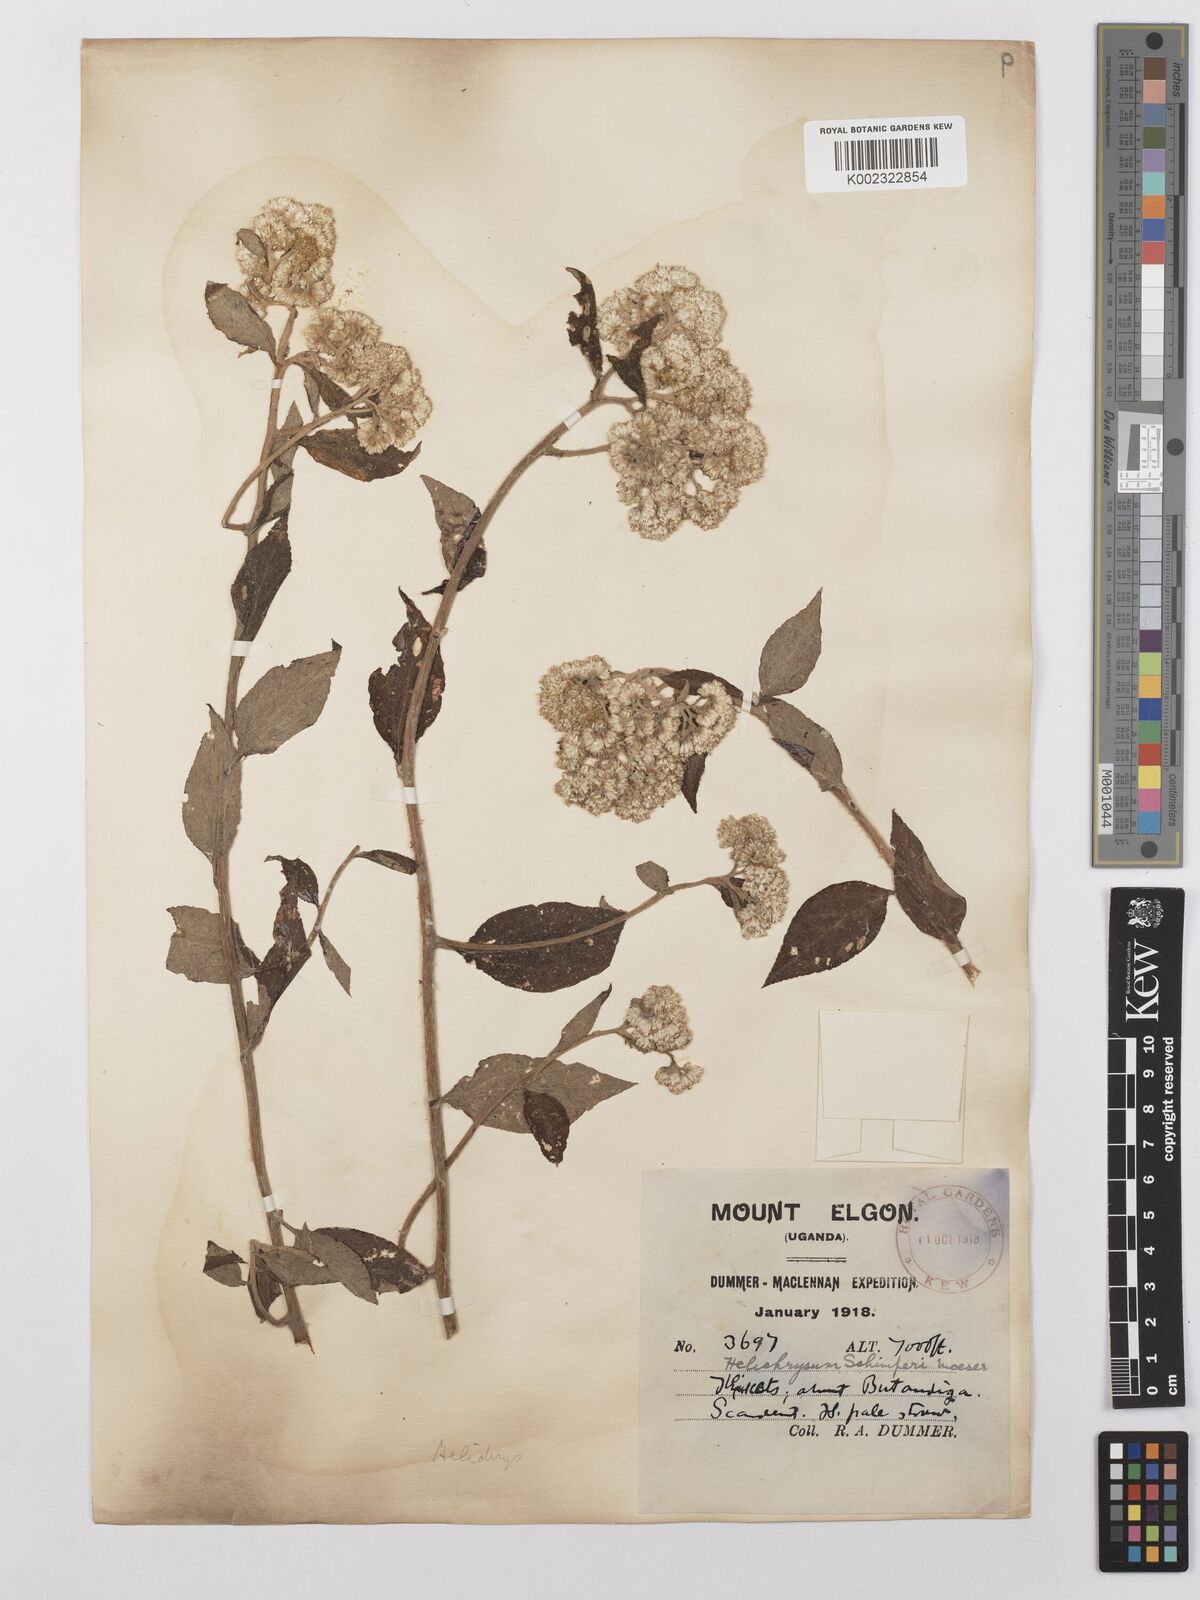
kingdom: Plantae
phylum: Tracheophyta
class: Magnoliopsida
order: Asterales
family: Asteraceae
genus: Helichrysum
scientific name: Helichrysum schimperi
